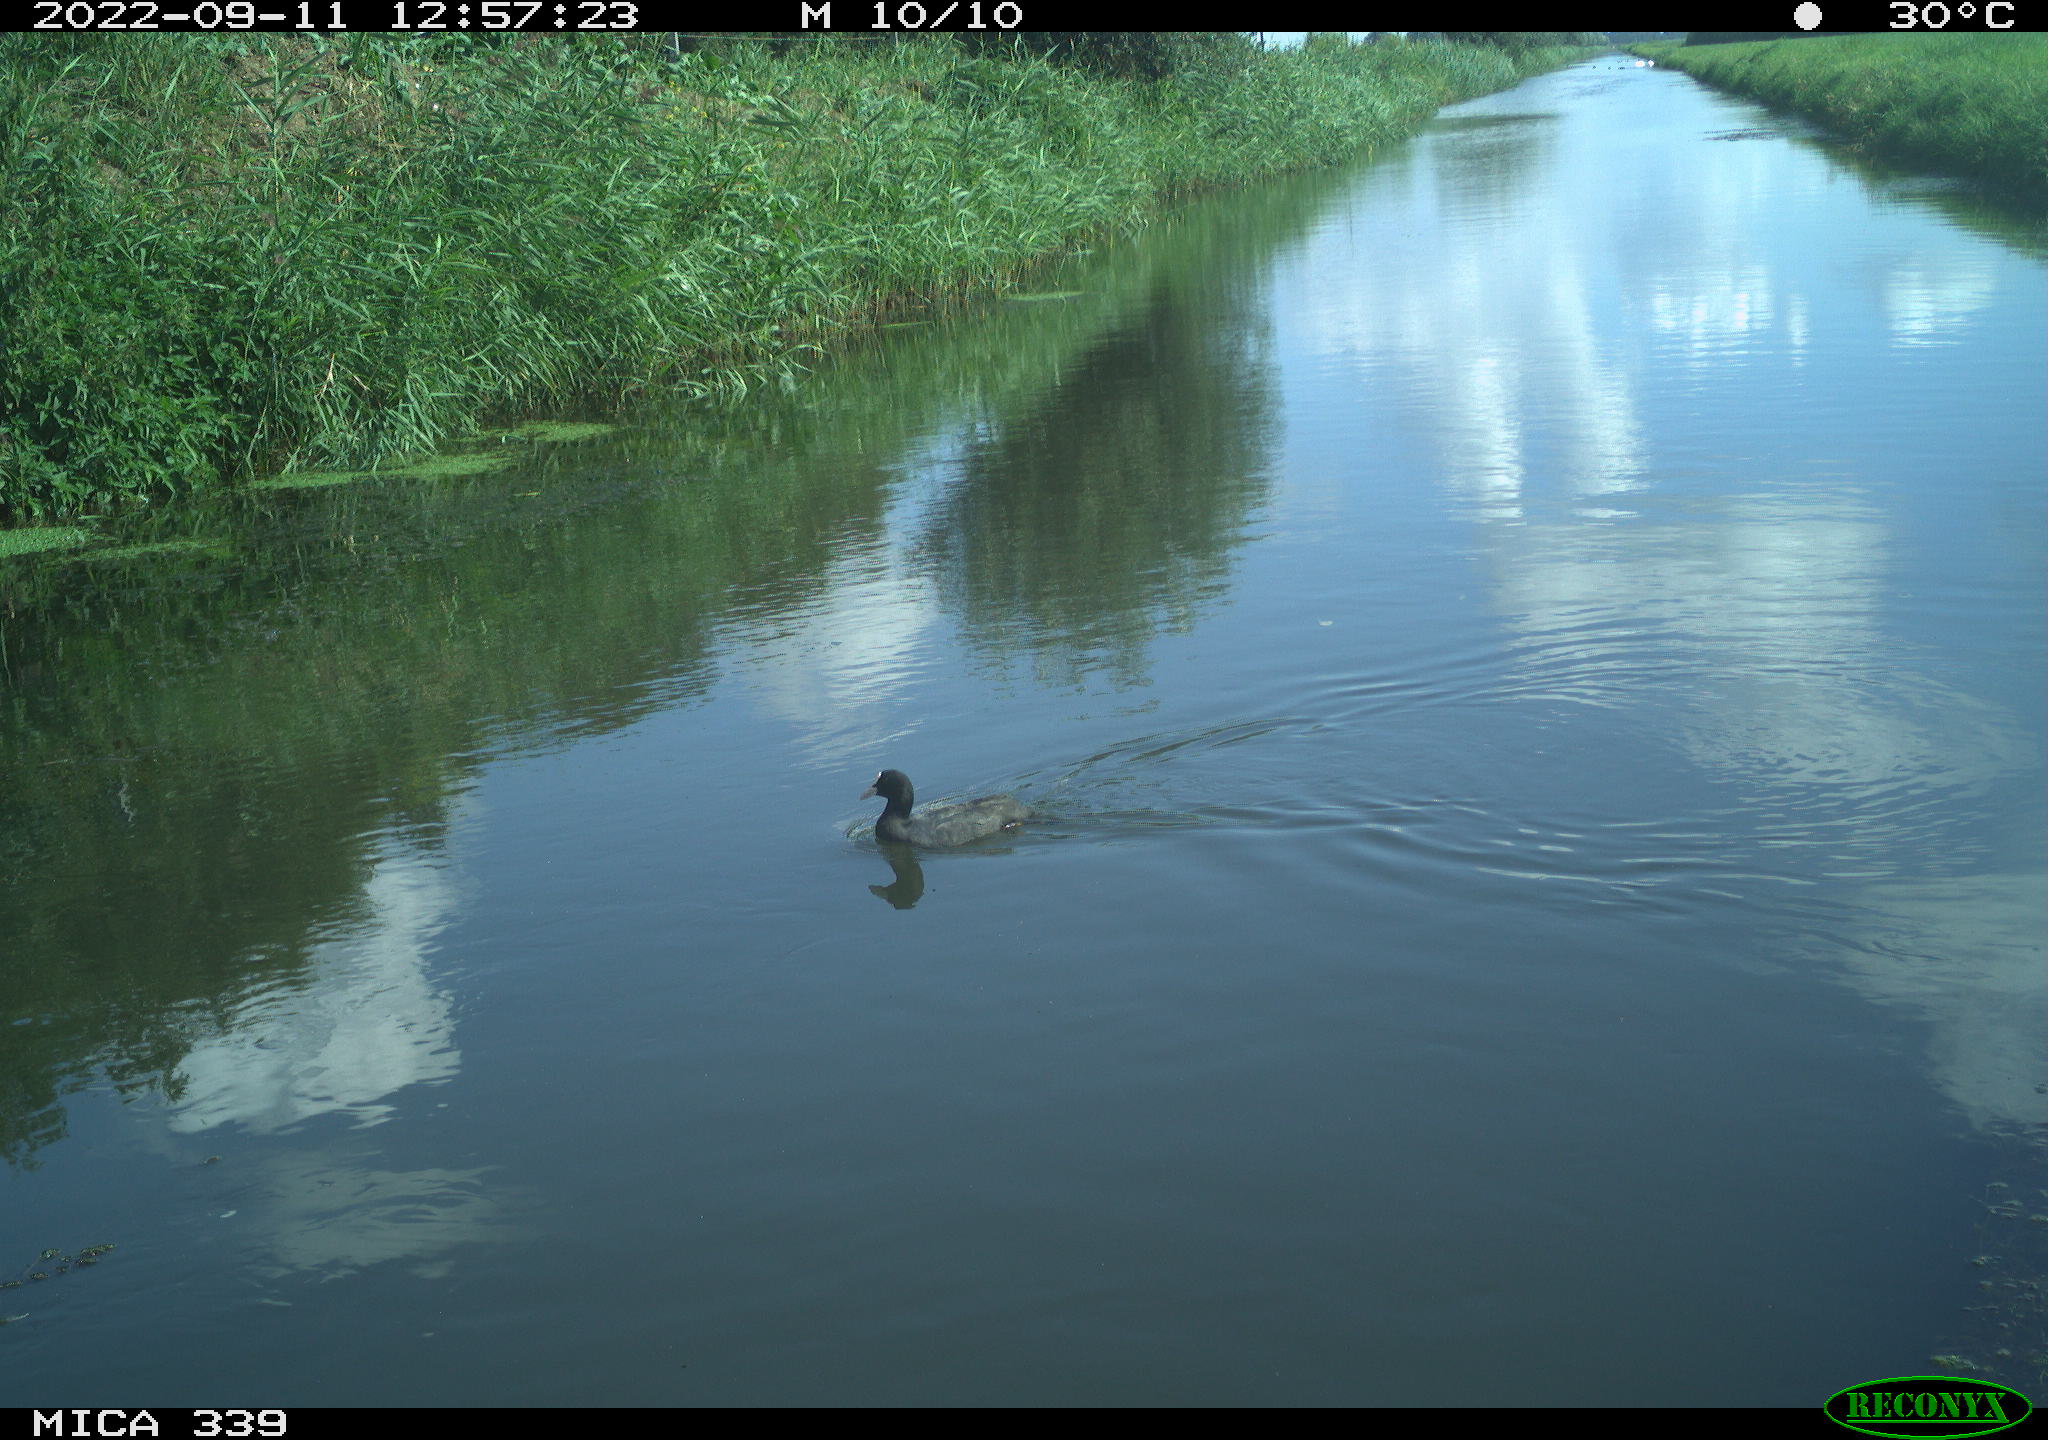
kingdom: Animalia
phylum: Chordata
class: Aves
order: Gruiformes
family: Rallidae
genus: Fulica
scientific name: Fulica atra
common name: Eurasian coot
